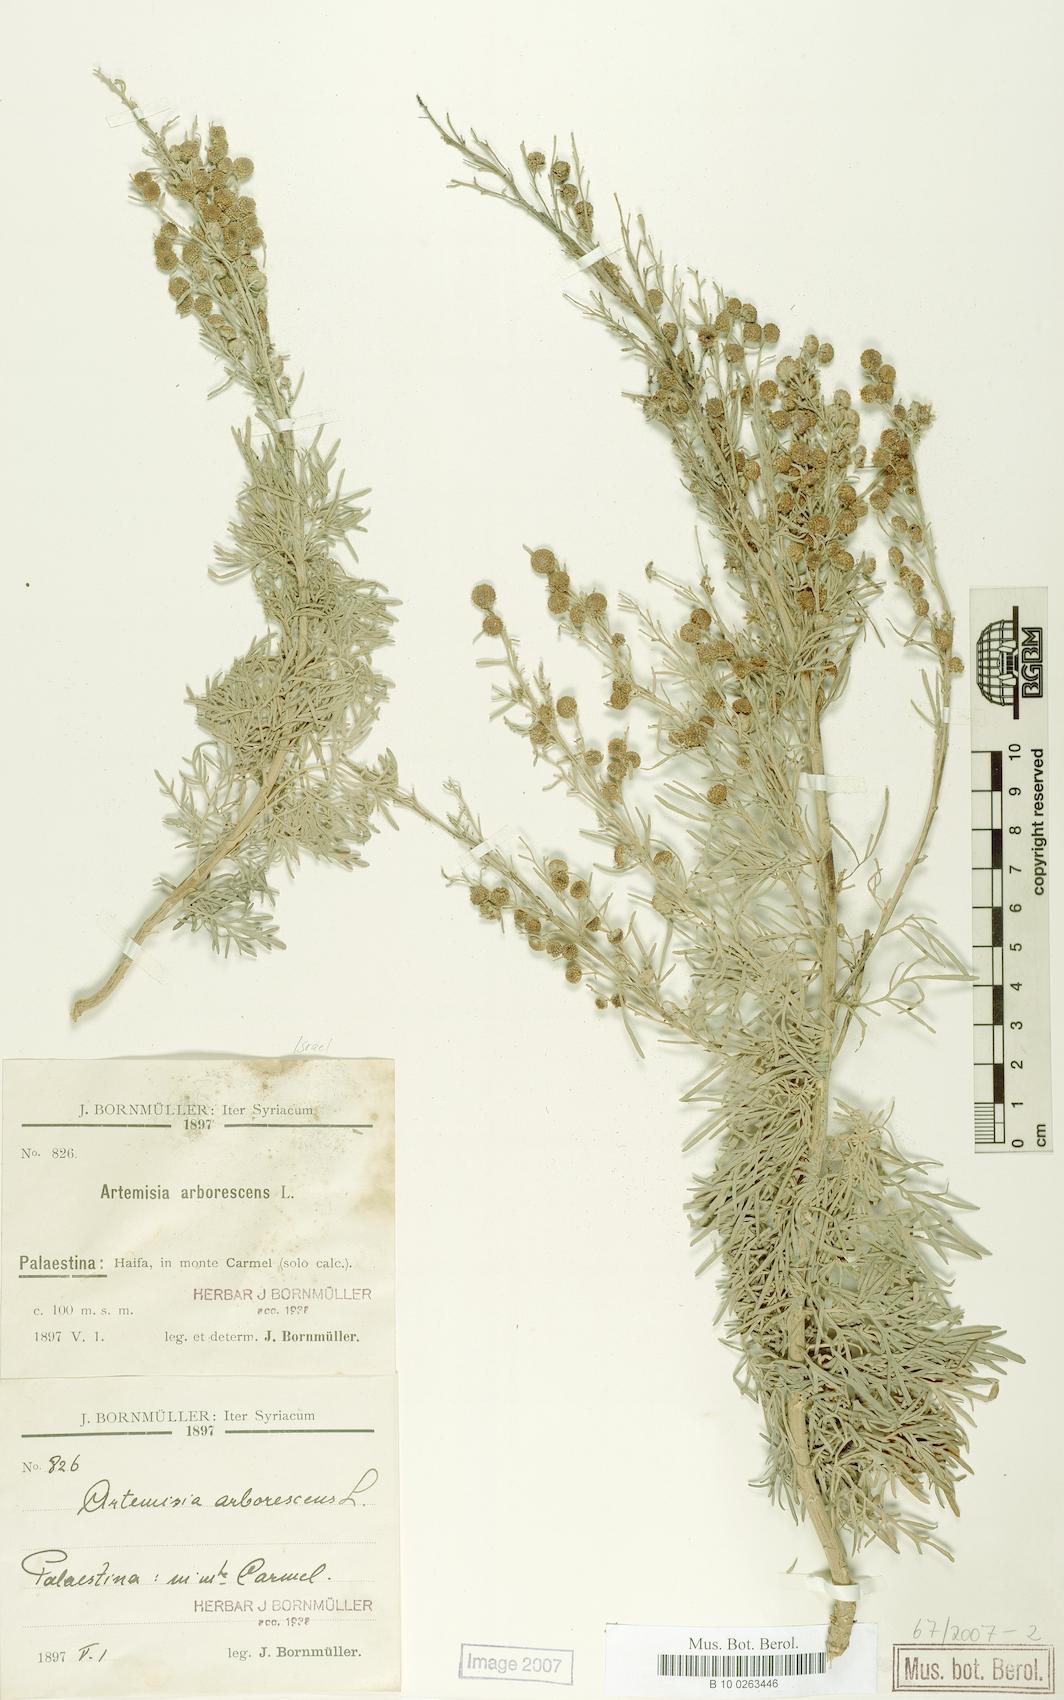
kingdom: Plantae
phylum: Tracheophyta
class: Magnoliopsida
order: Asterales
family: Asteraceae
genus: Artemisia
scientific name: Artemisia arborescens
